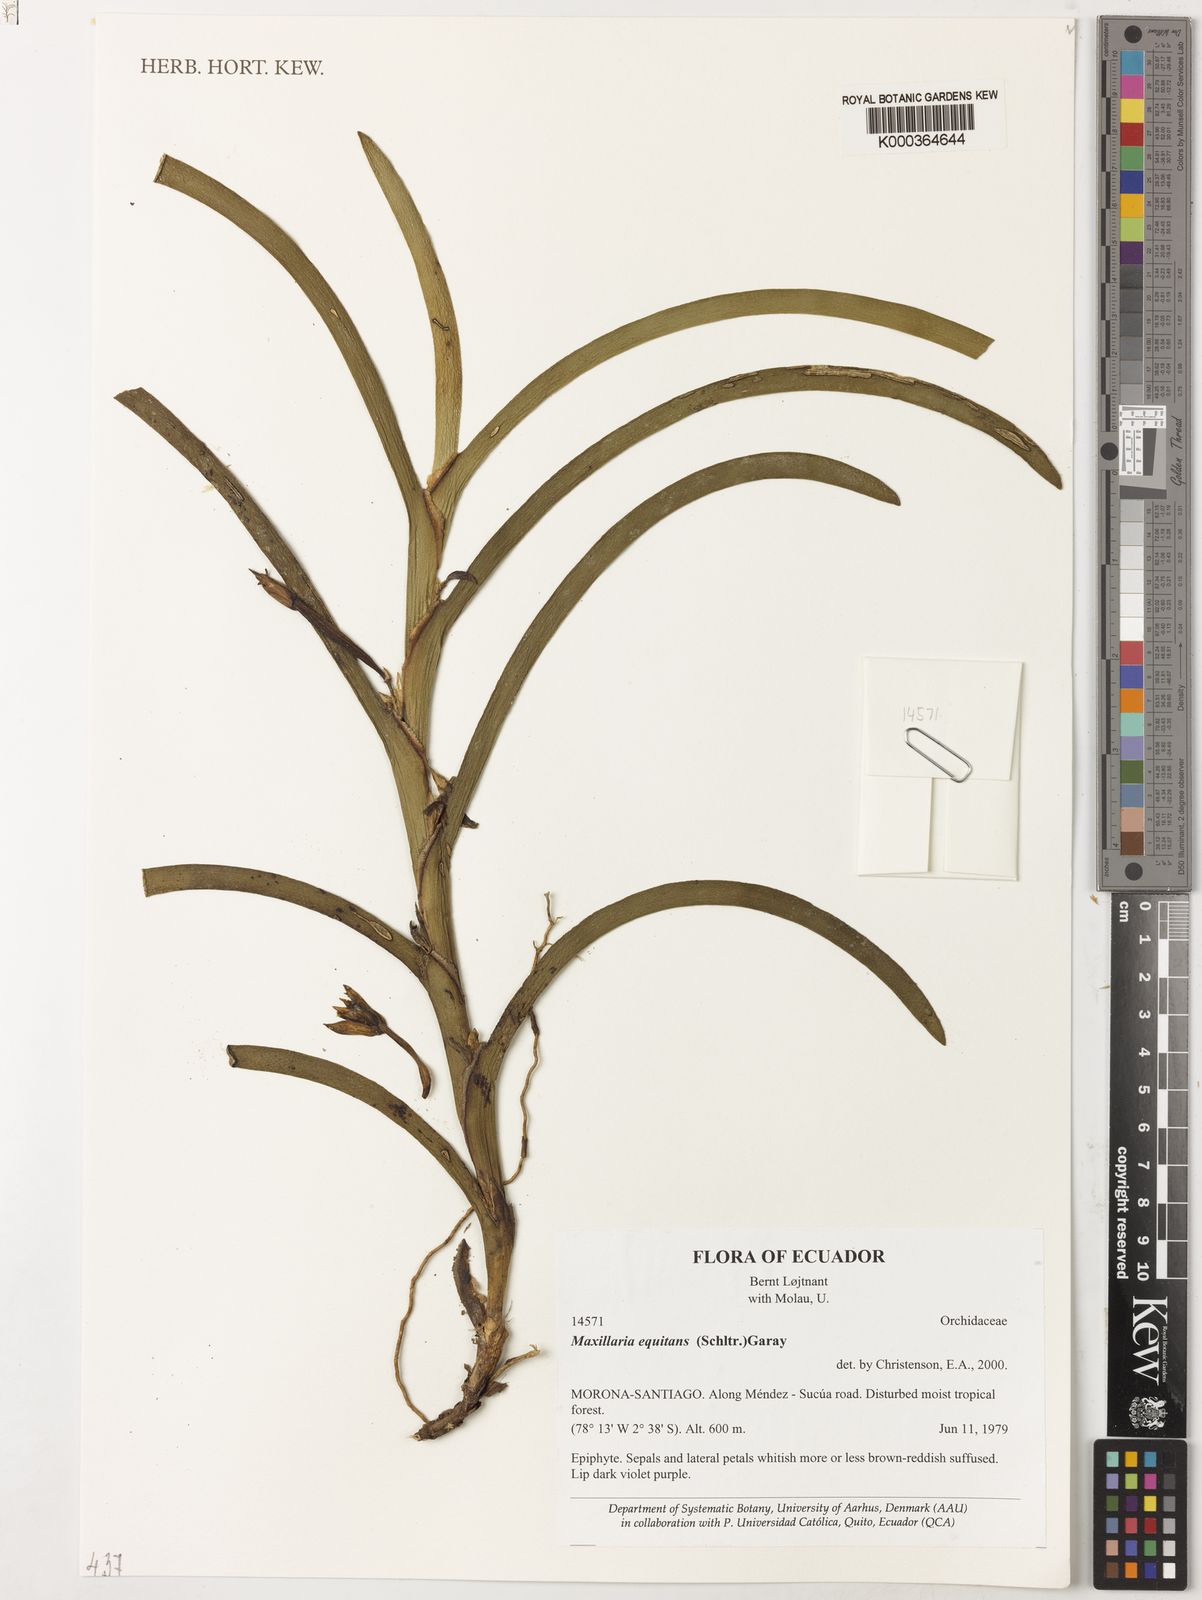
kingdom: Plantae
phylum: Tracheophyta
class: Liliopsida
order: Asparagales
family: Orchidaceae
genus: Maxillaria
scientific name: Maxillaria equitans
